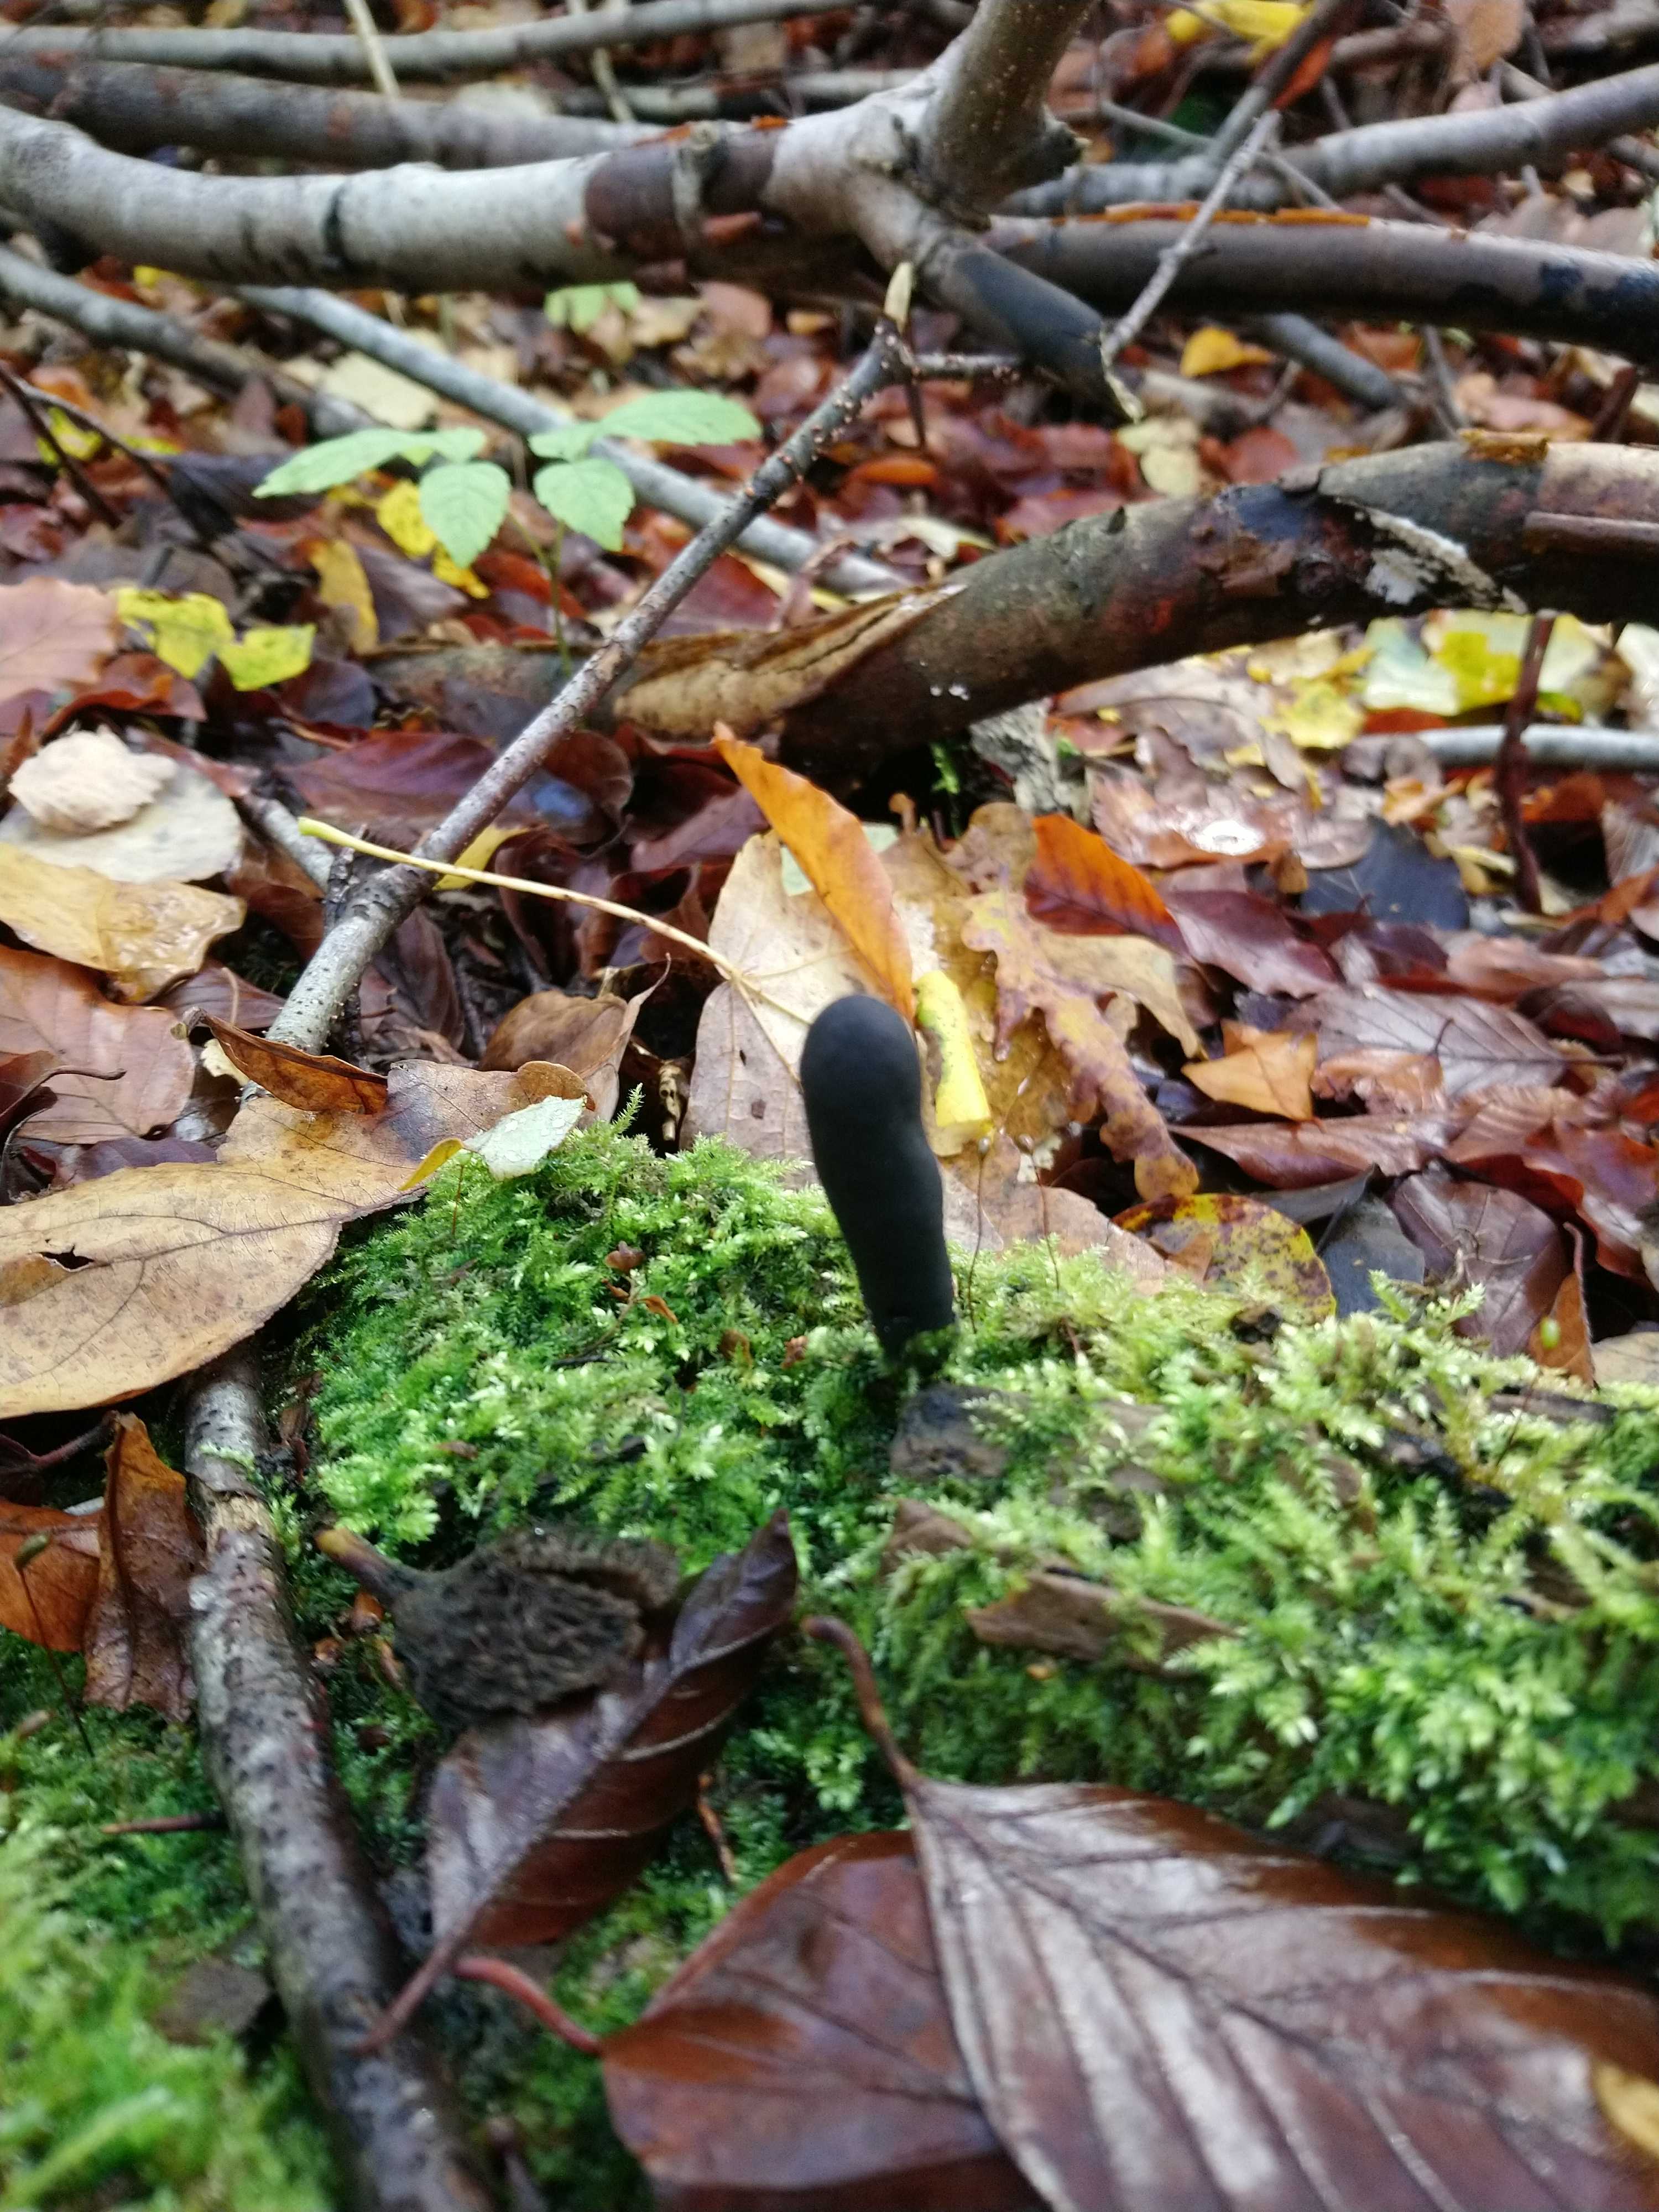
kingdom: Fungi
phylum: Ascomycota
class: Sordariomycetes
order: Xylariales
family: Xylariaceae
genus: Xylaria
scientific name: Xylaria longipes
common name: slank stødsvamp
